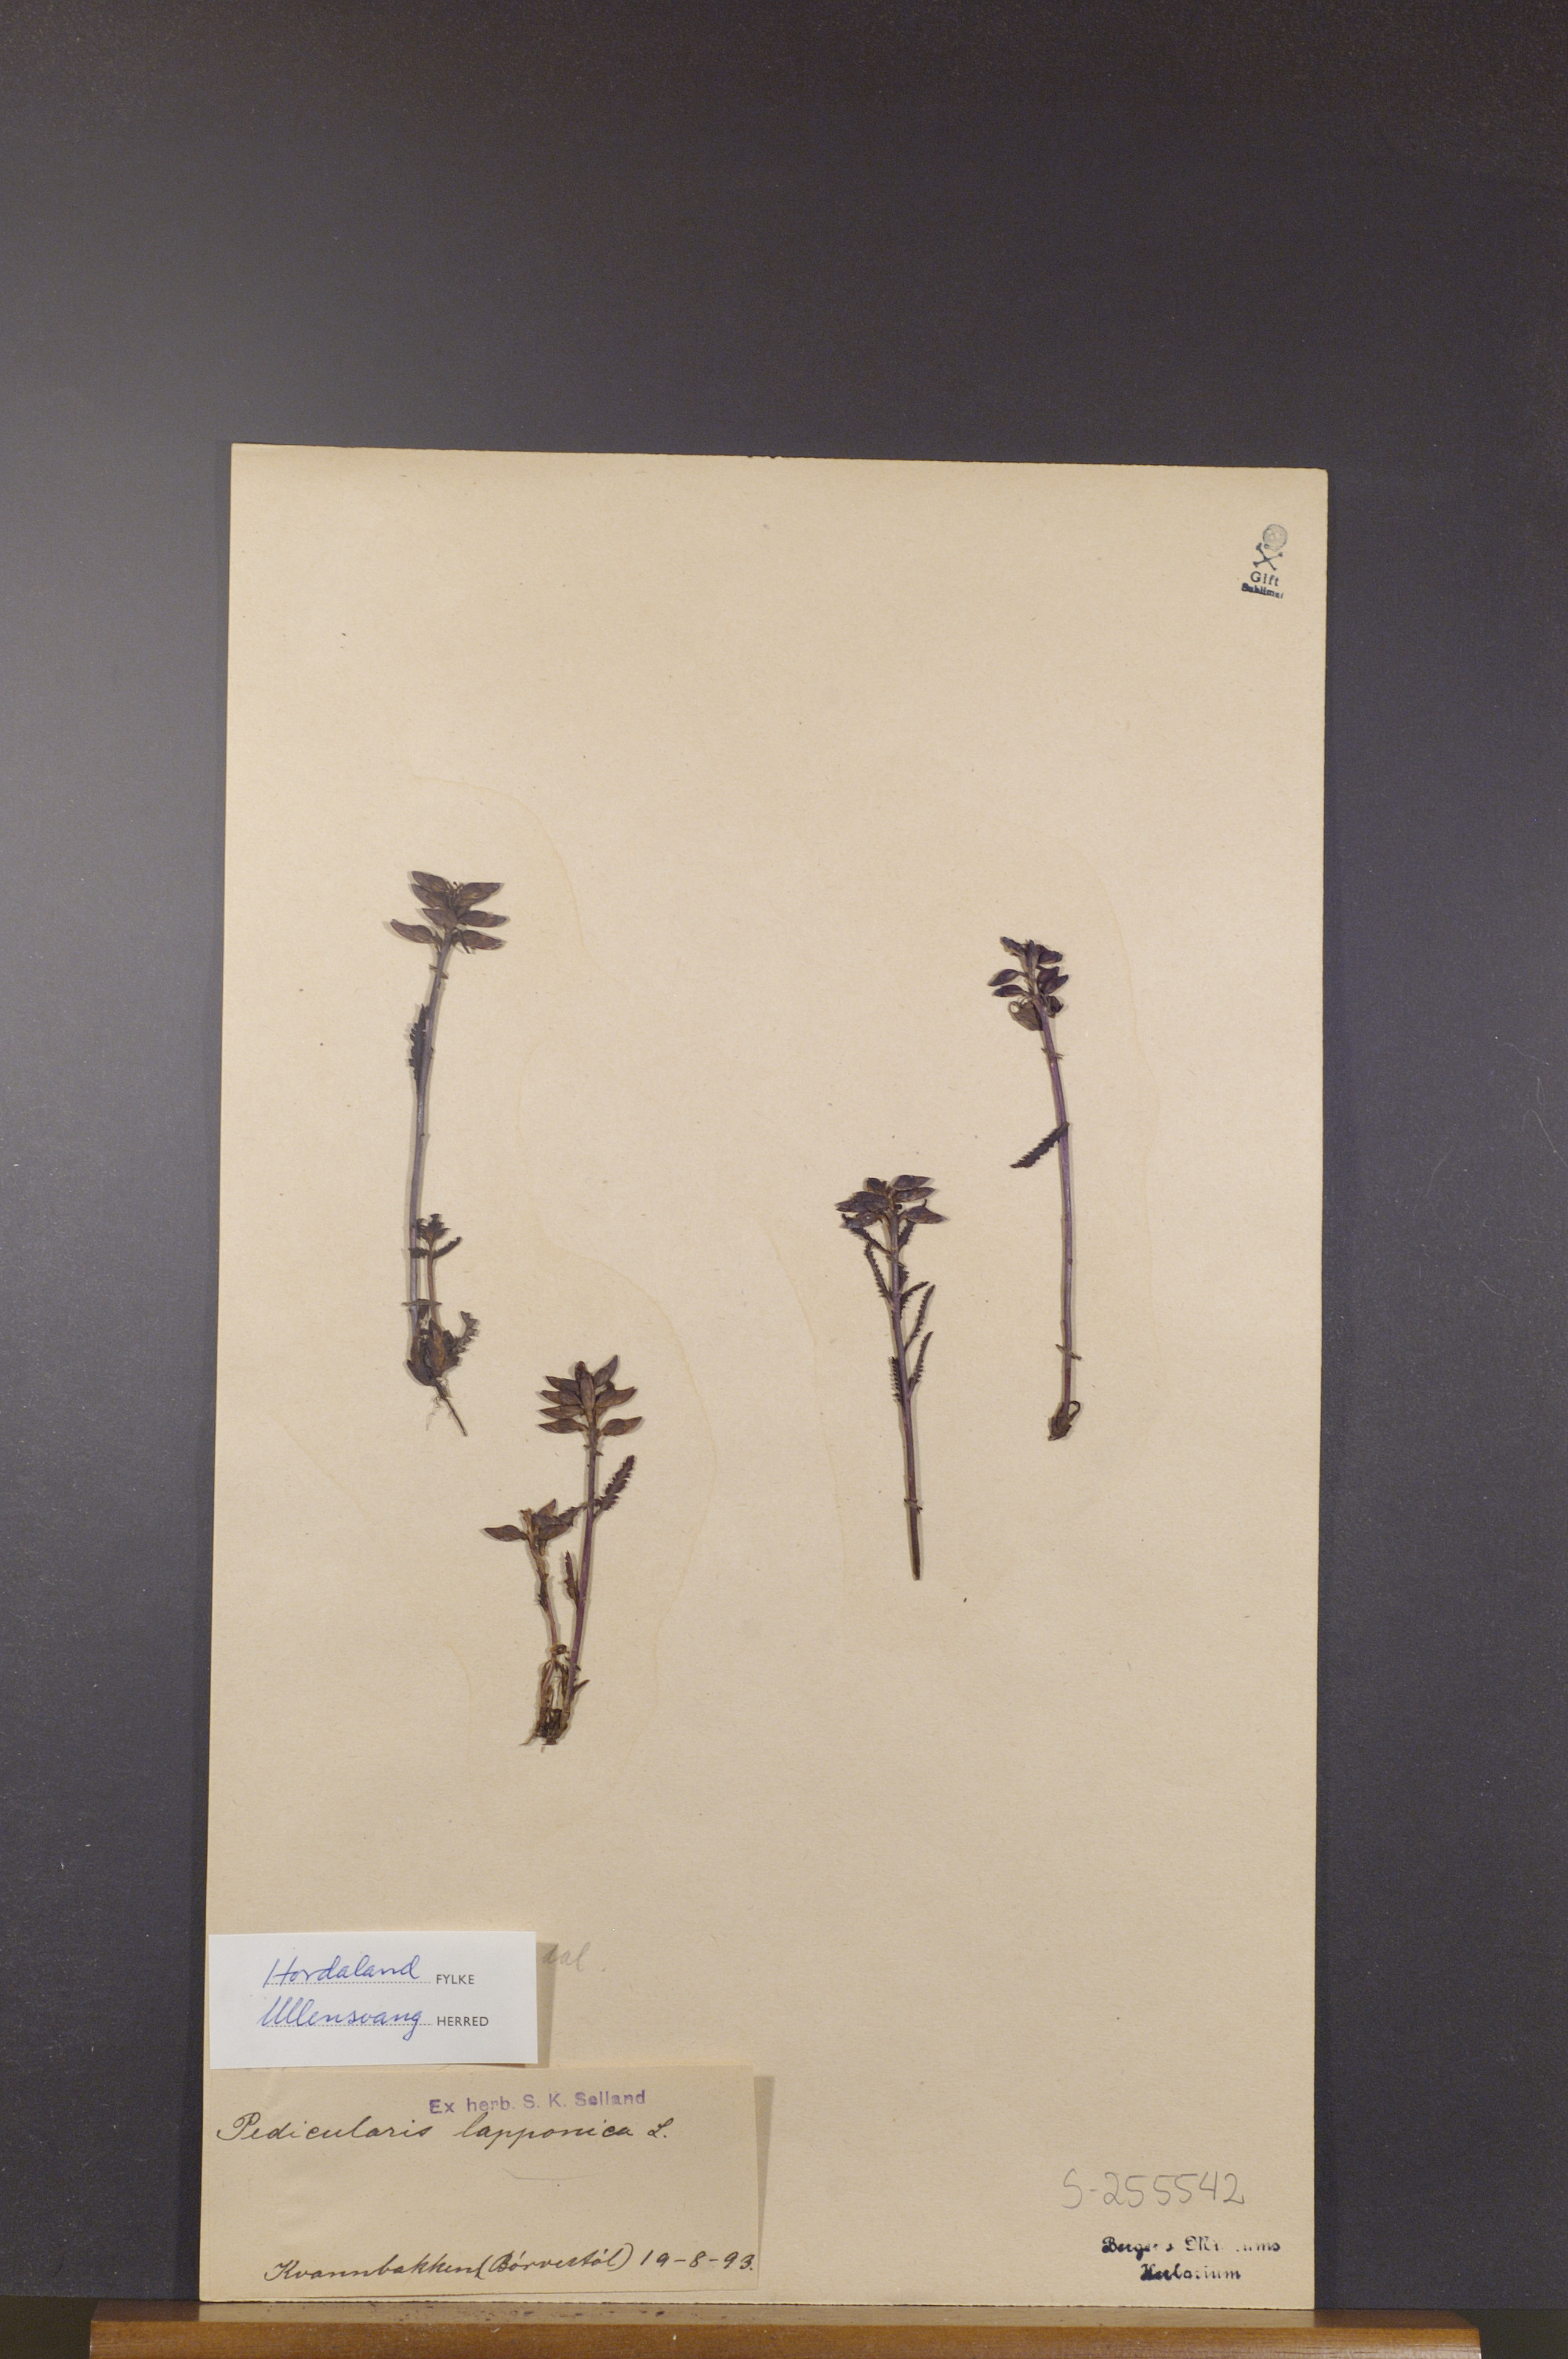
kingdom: Plantae
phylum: Tracheophyta
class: Magnoliopsida
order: Lamiales
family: Orobanchaceae
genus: Pedicularis
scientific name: Pedicularis lapponica
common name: Lapland lousewort
